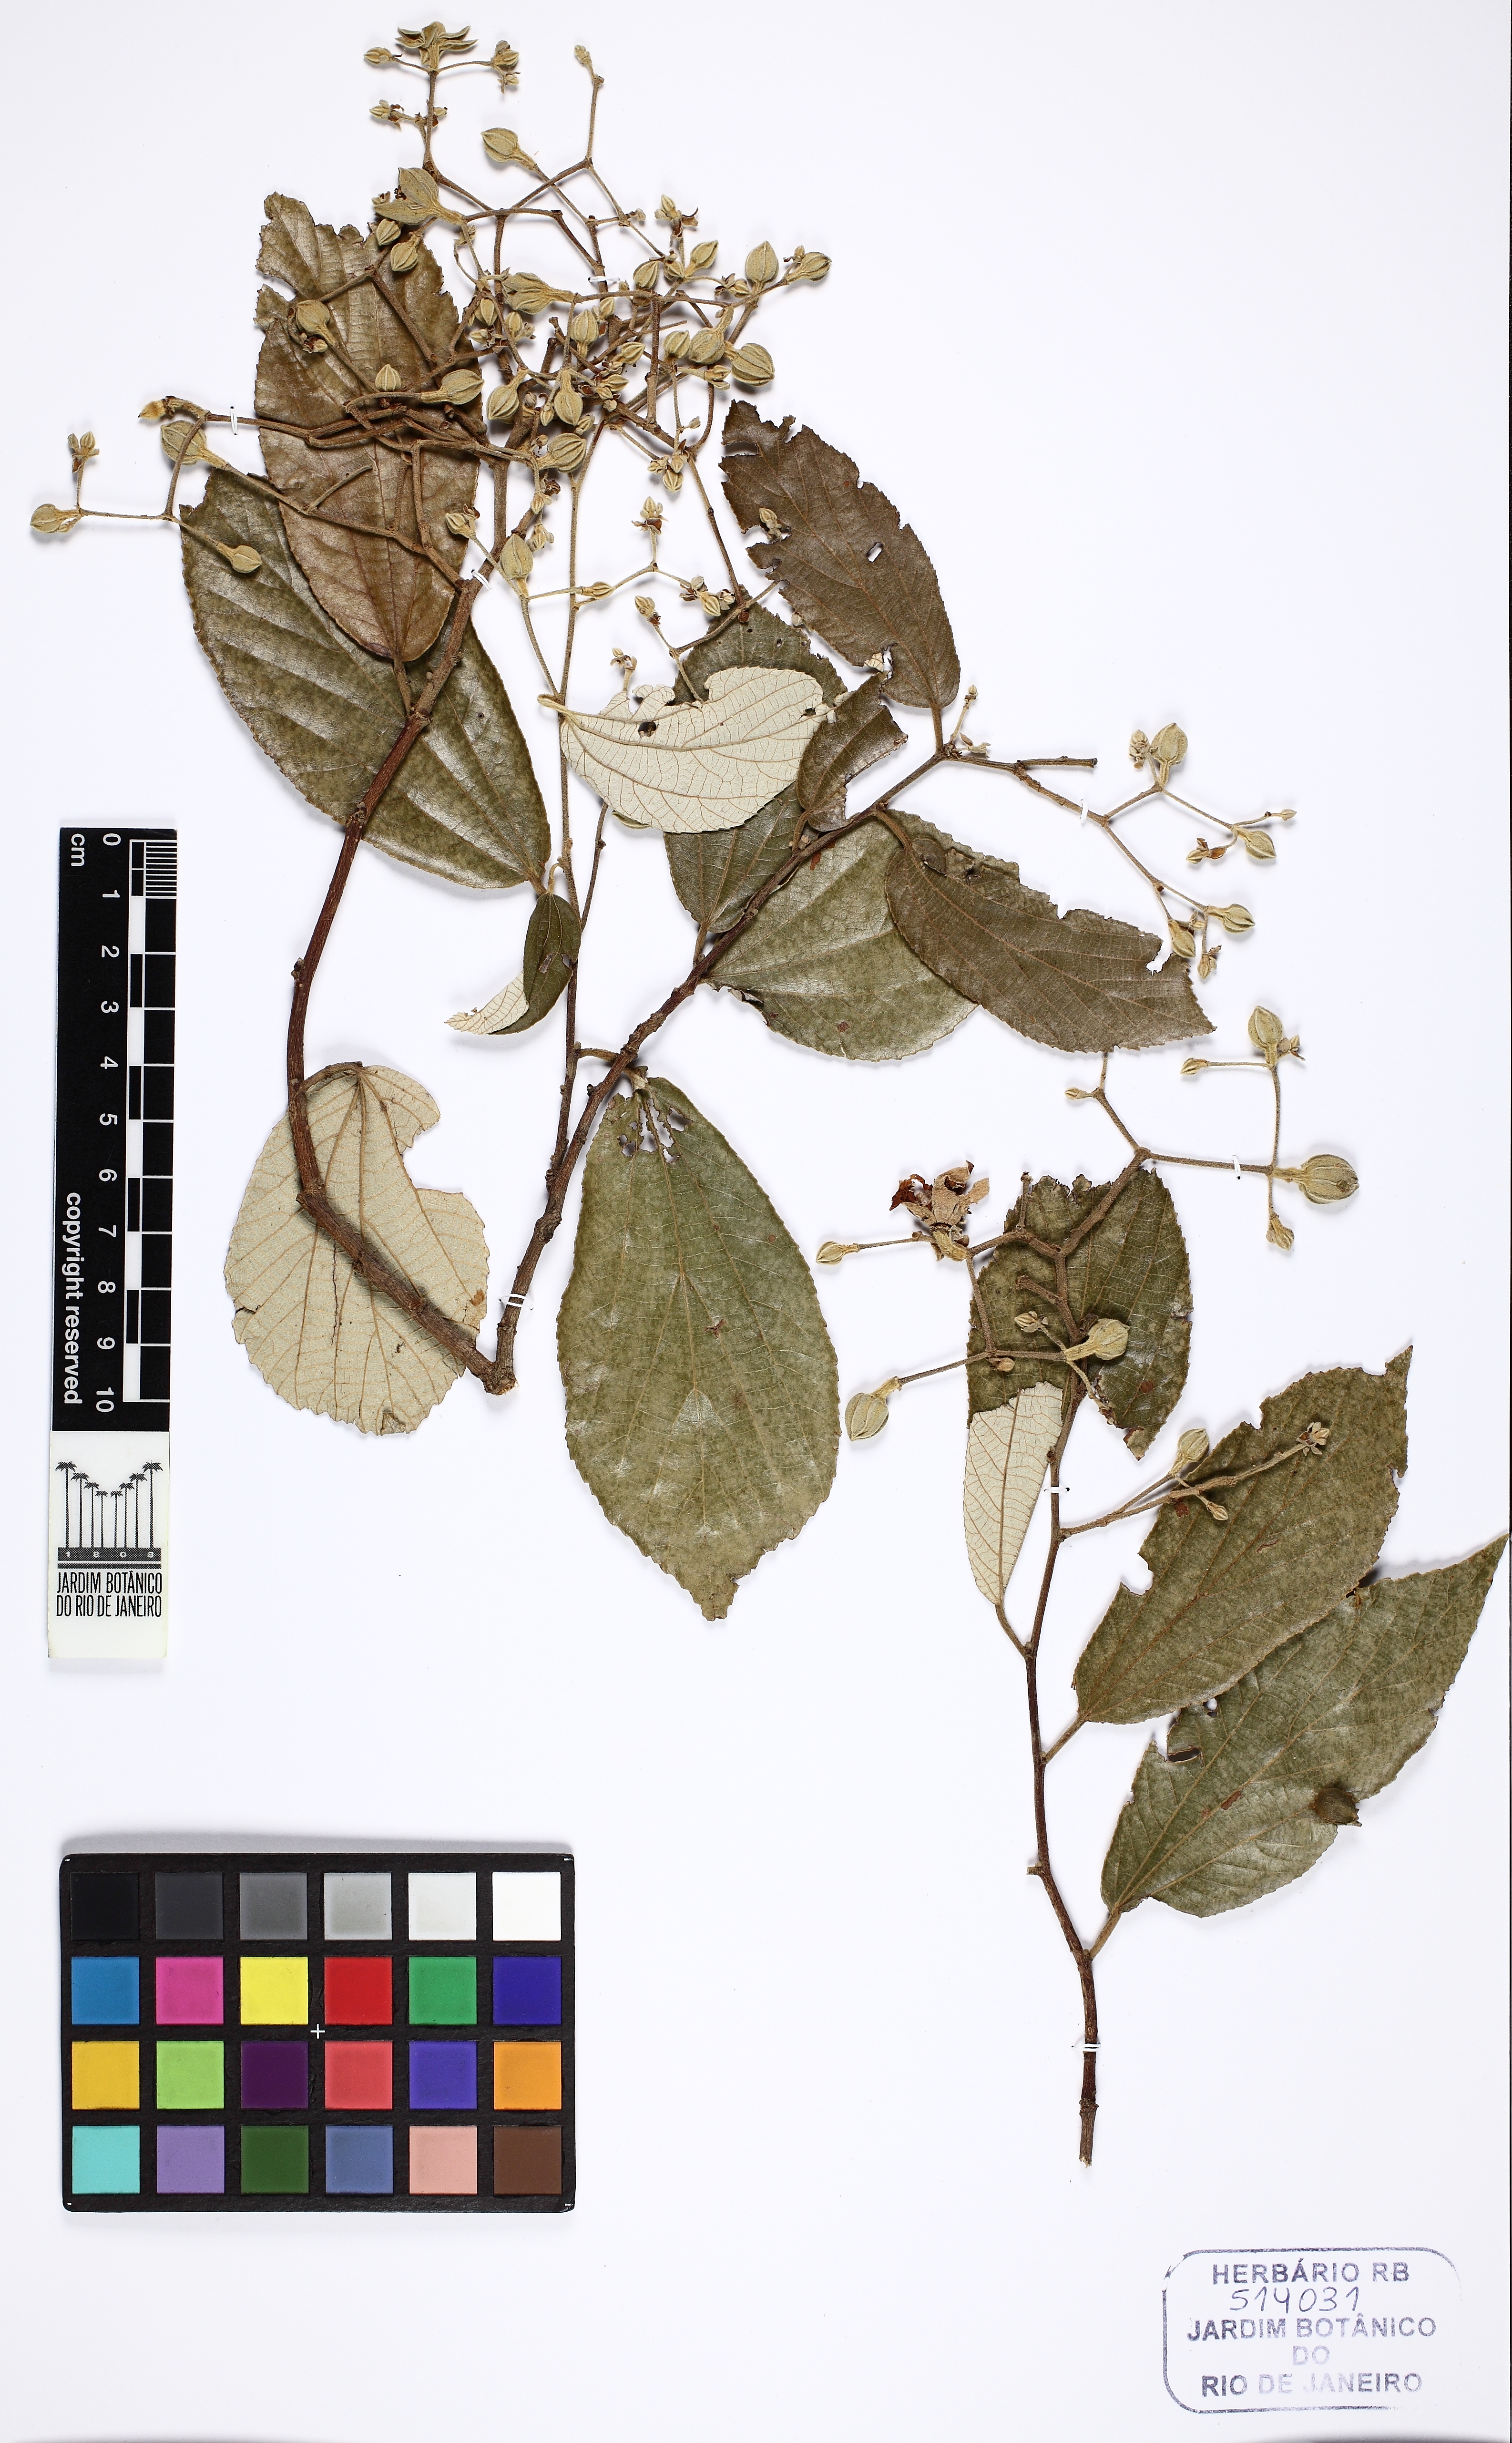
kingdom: Plantae
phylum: Tracheophyta
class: Magnoliopsida
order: Malvales
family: Malvaceae
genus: Luehea
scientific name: Luehea divaricata
